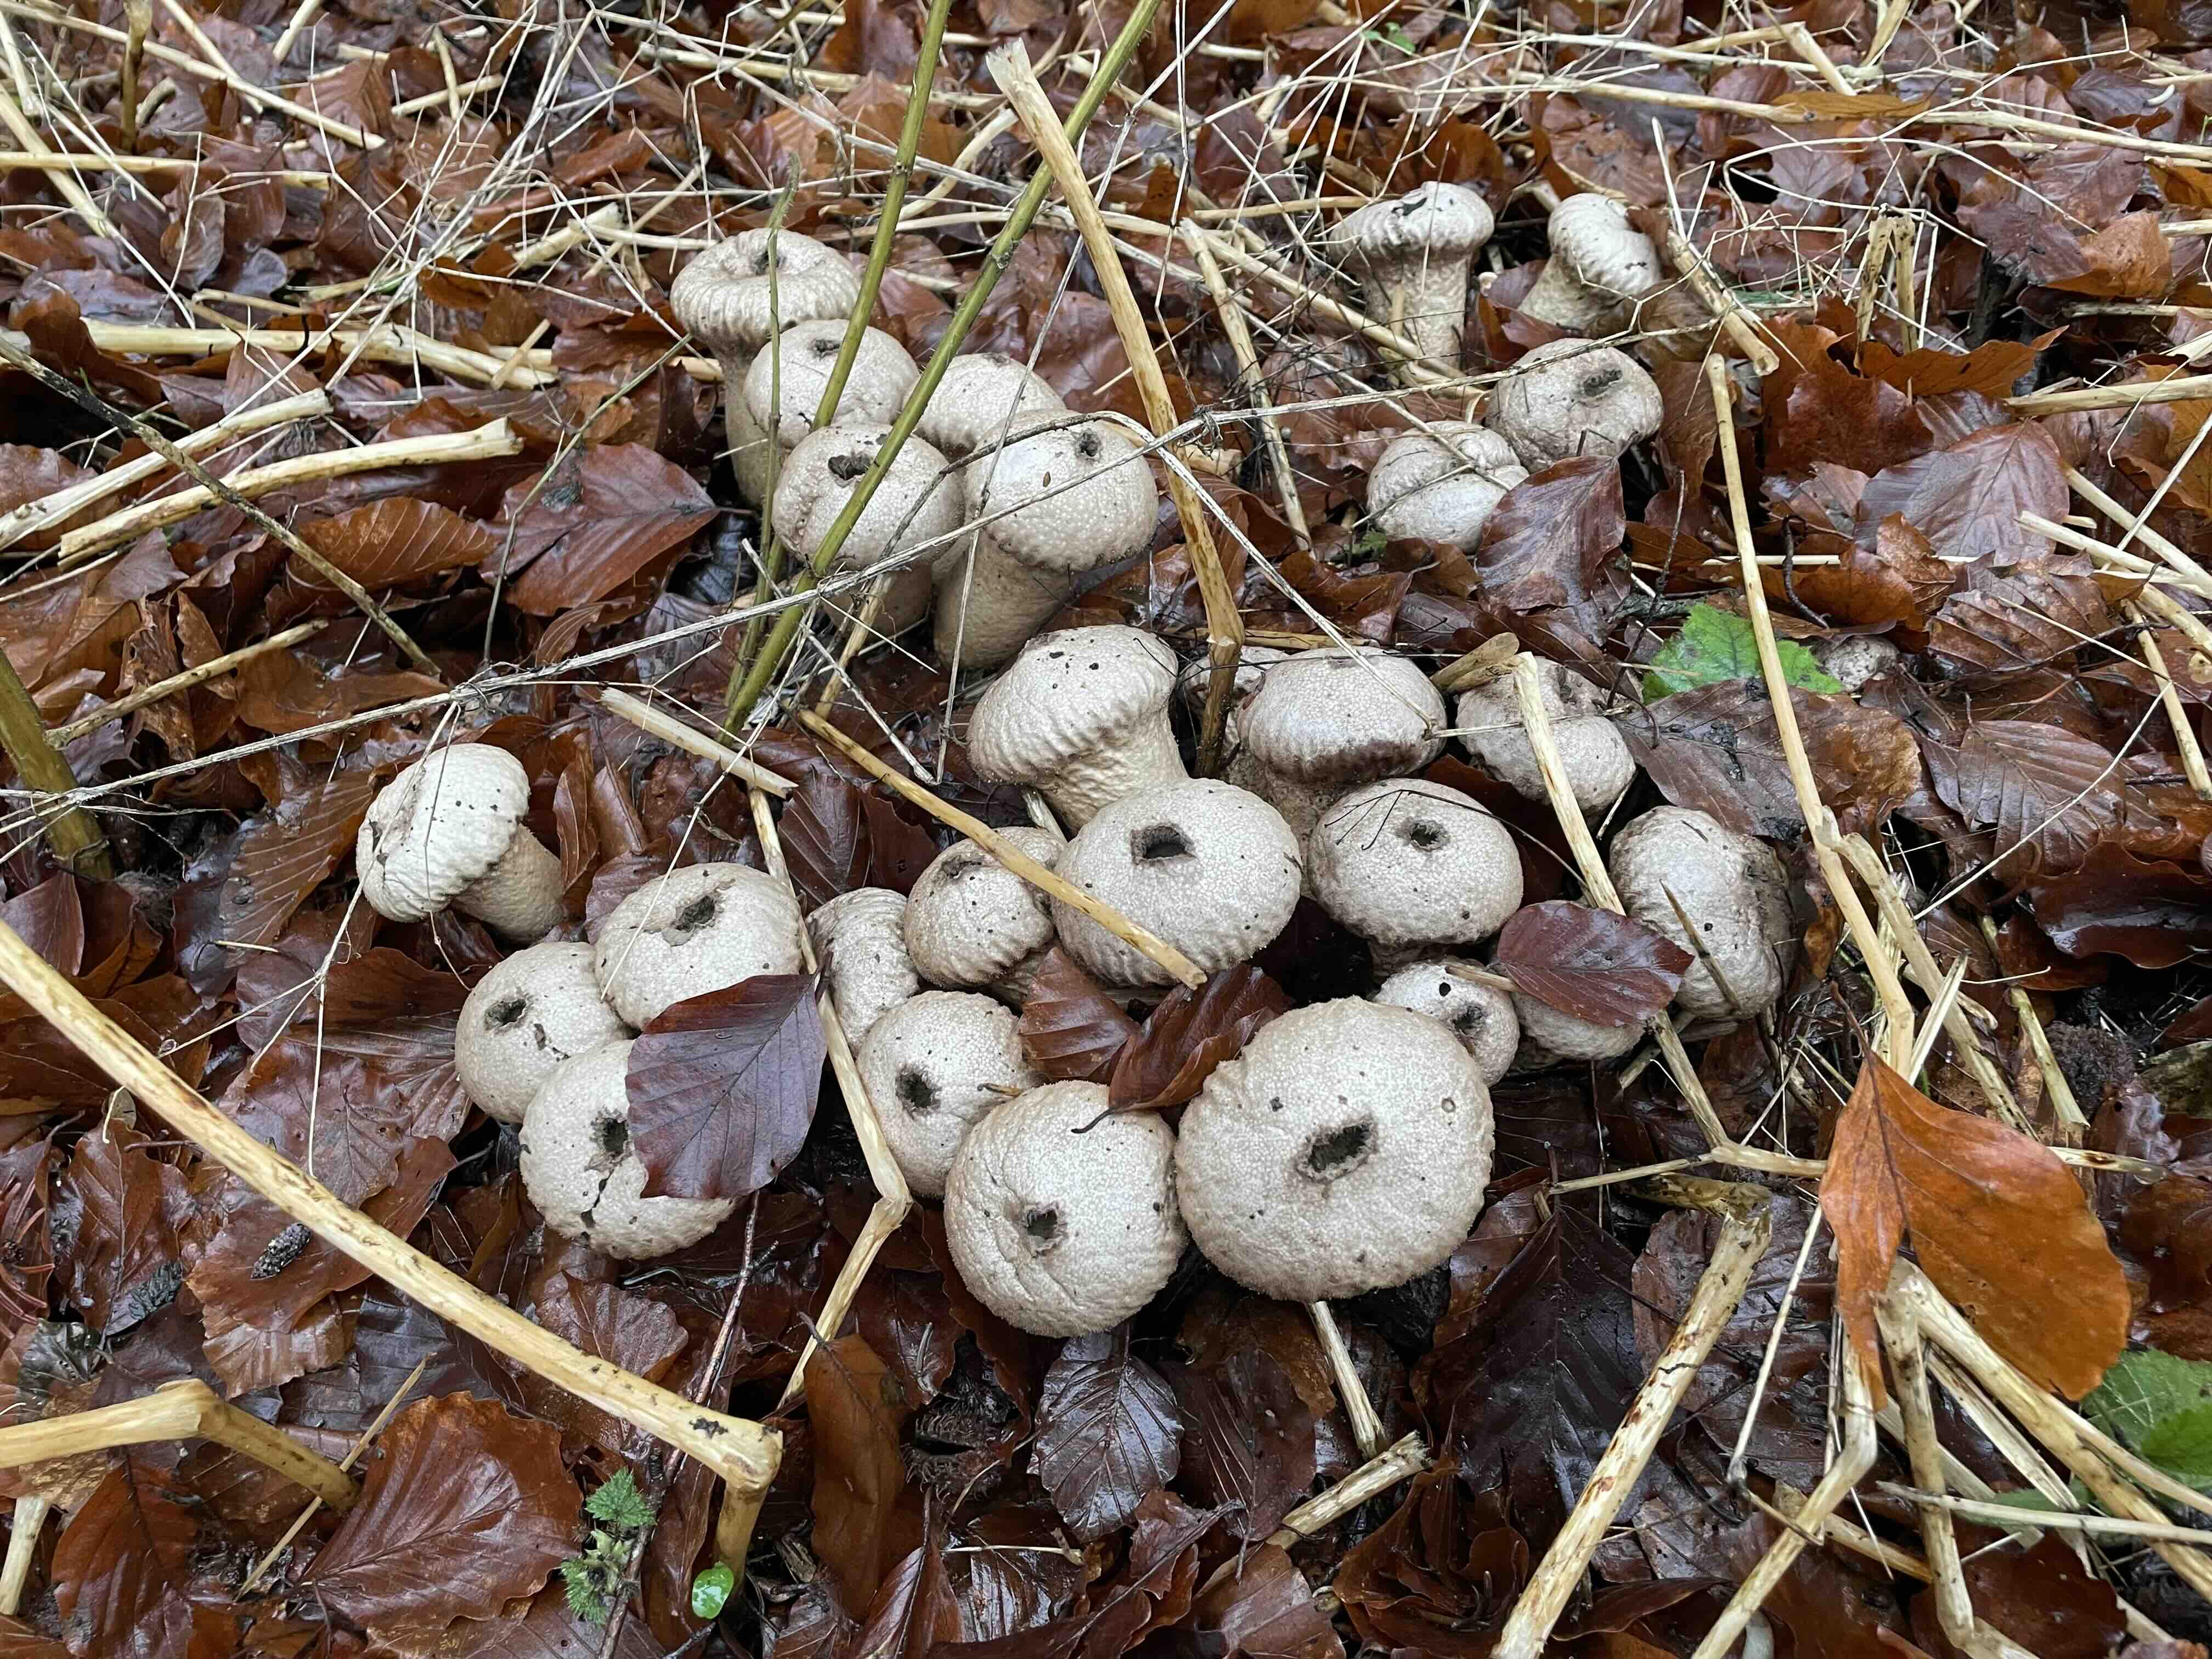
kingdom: Fungi
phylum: Basidiomycota
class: Agaricomycetes
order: Agaricales
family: Lycoperdaceae
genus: Lycoperdon
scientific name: Lycoperdon perlatum
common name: krystal-støvbold
